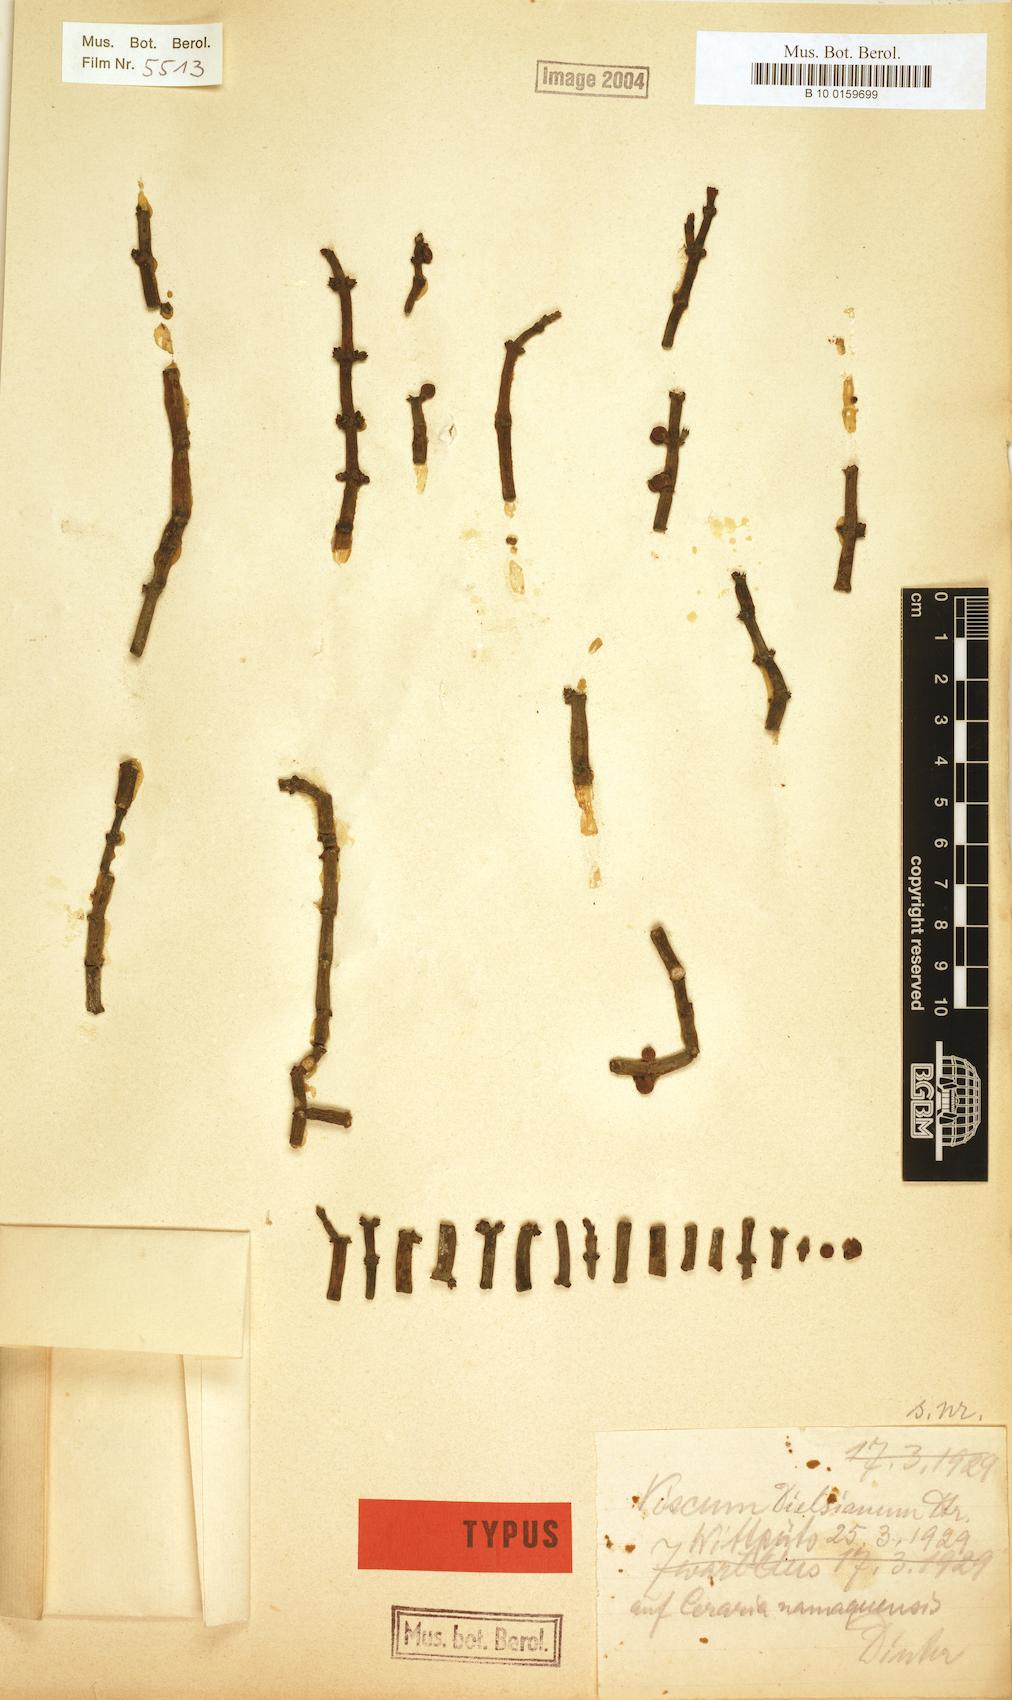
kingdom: Plantae
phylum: Tracheophyta
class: Magnoliopsida
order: Santalales
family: Viscaceae
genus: Viscum
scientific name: Viscum dielsianum
